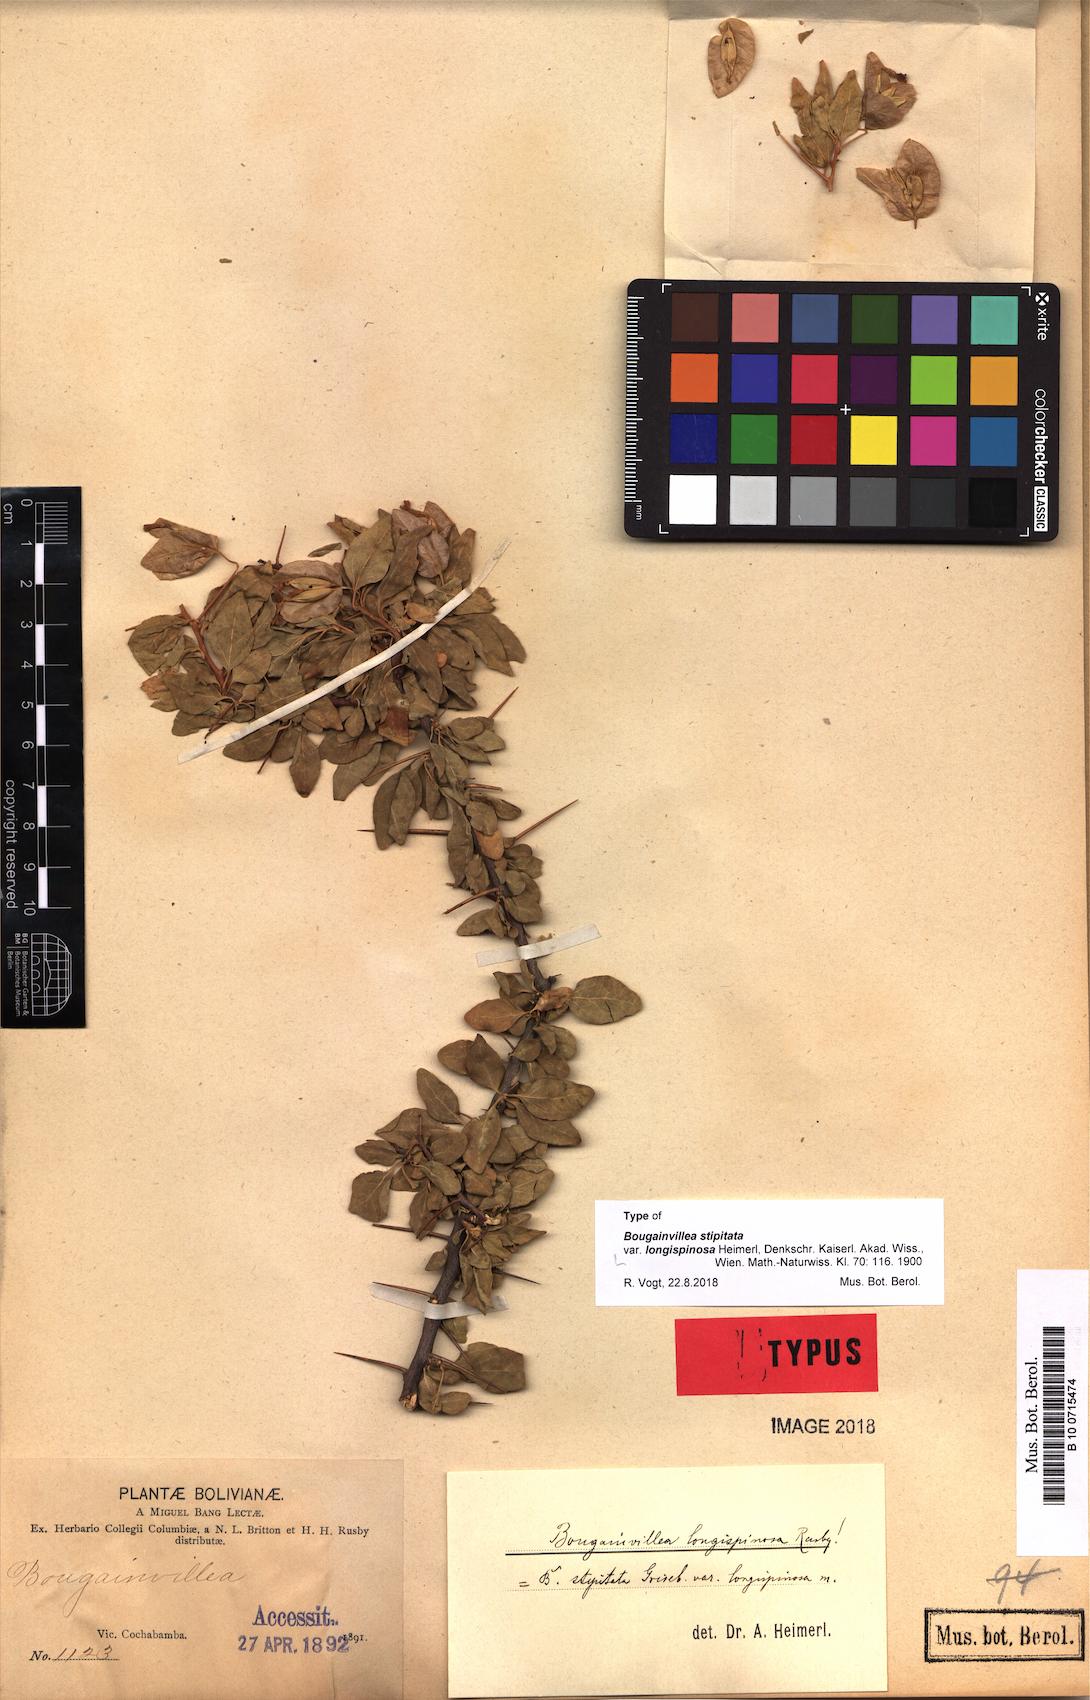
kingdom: Plantae
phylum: Tracheophyta
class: Magnoliopsida
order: Caryophyllales
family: Nyctaginaceae
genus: Bougainvillea
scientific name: Bougainvillea stipitata
